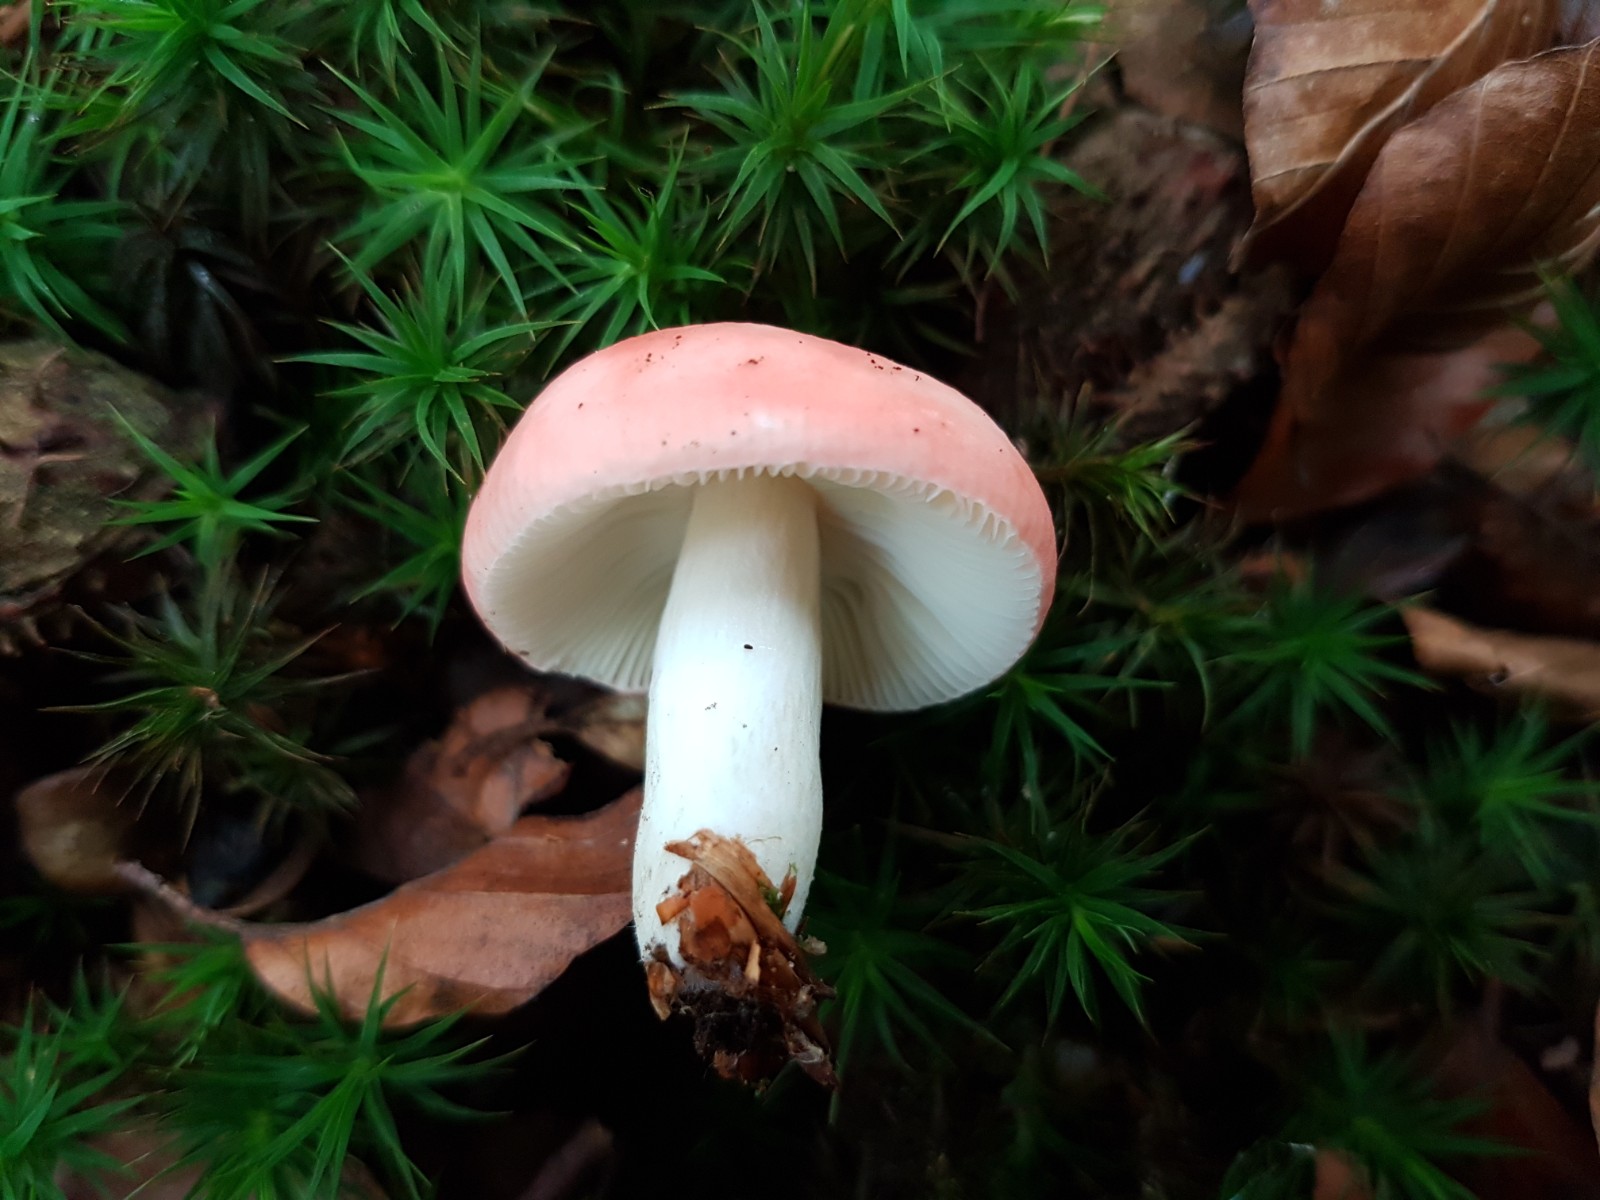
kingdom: Fungi
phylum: Basidiomycota
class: Agaricomycetes
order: Russulales
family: Russulaceae
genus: Russula
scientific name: Russula nobilis
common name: lille gift-skørhat
